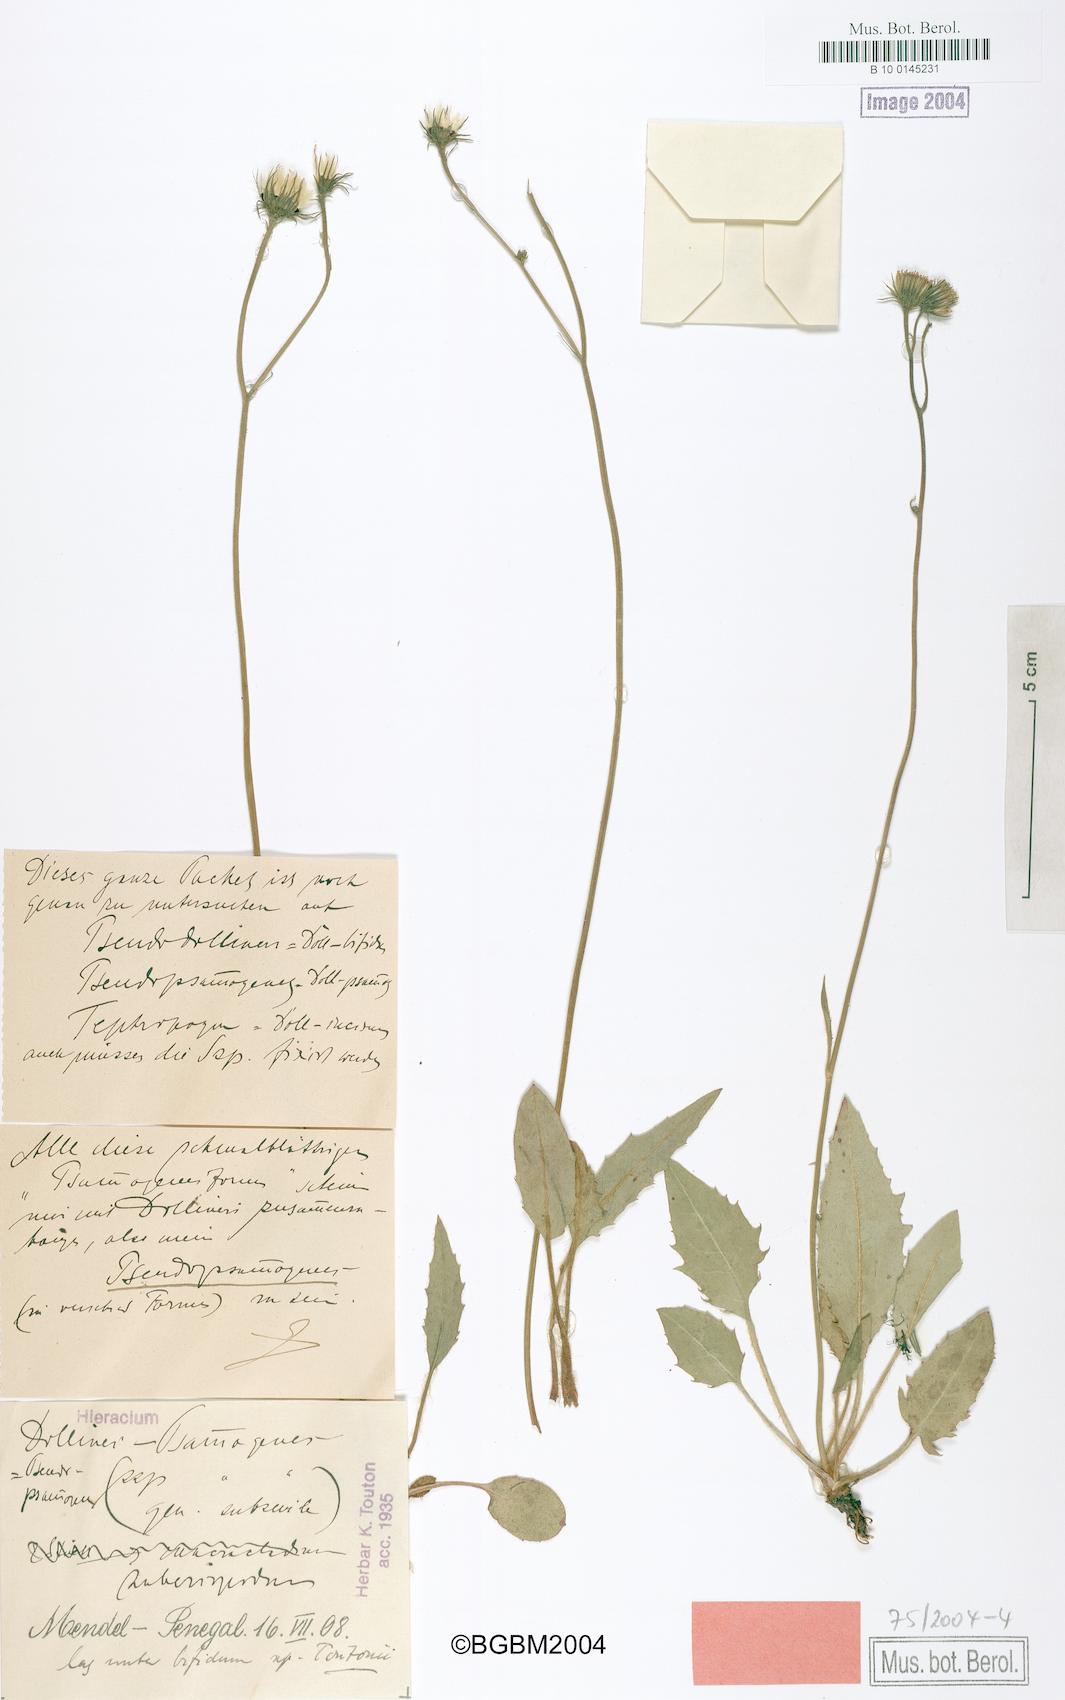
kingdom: Plantae
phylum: Tracheophyta
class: Magnoliopsida
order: Asterales
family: Asteraceae
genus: Hieracium
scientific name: Hieracium bifidum
